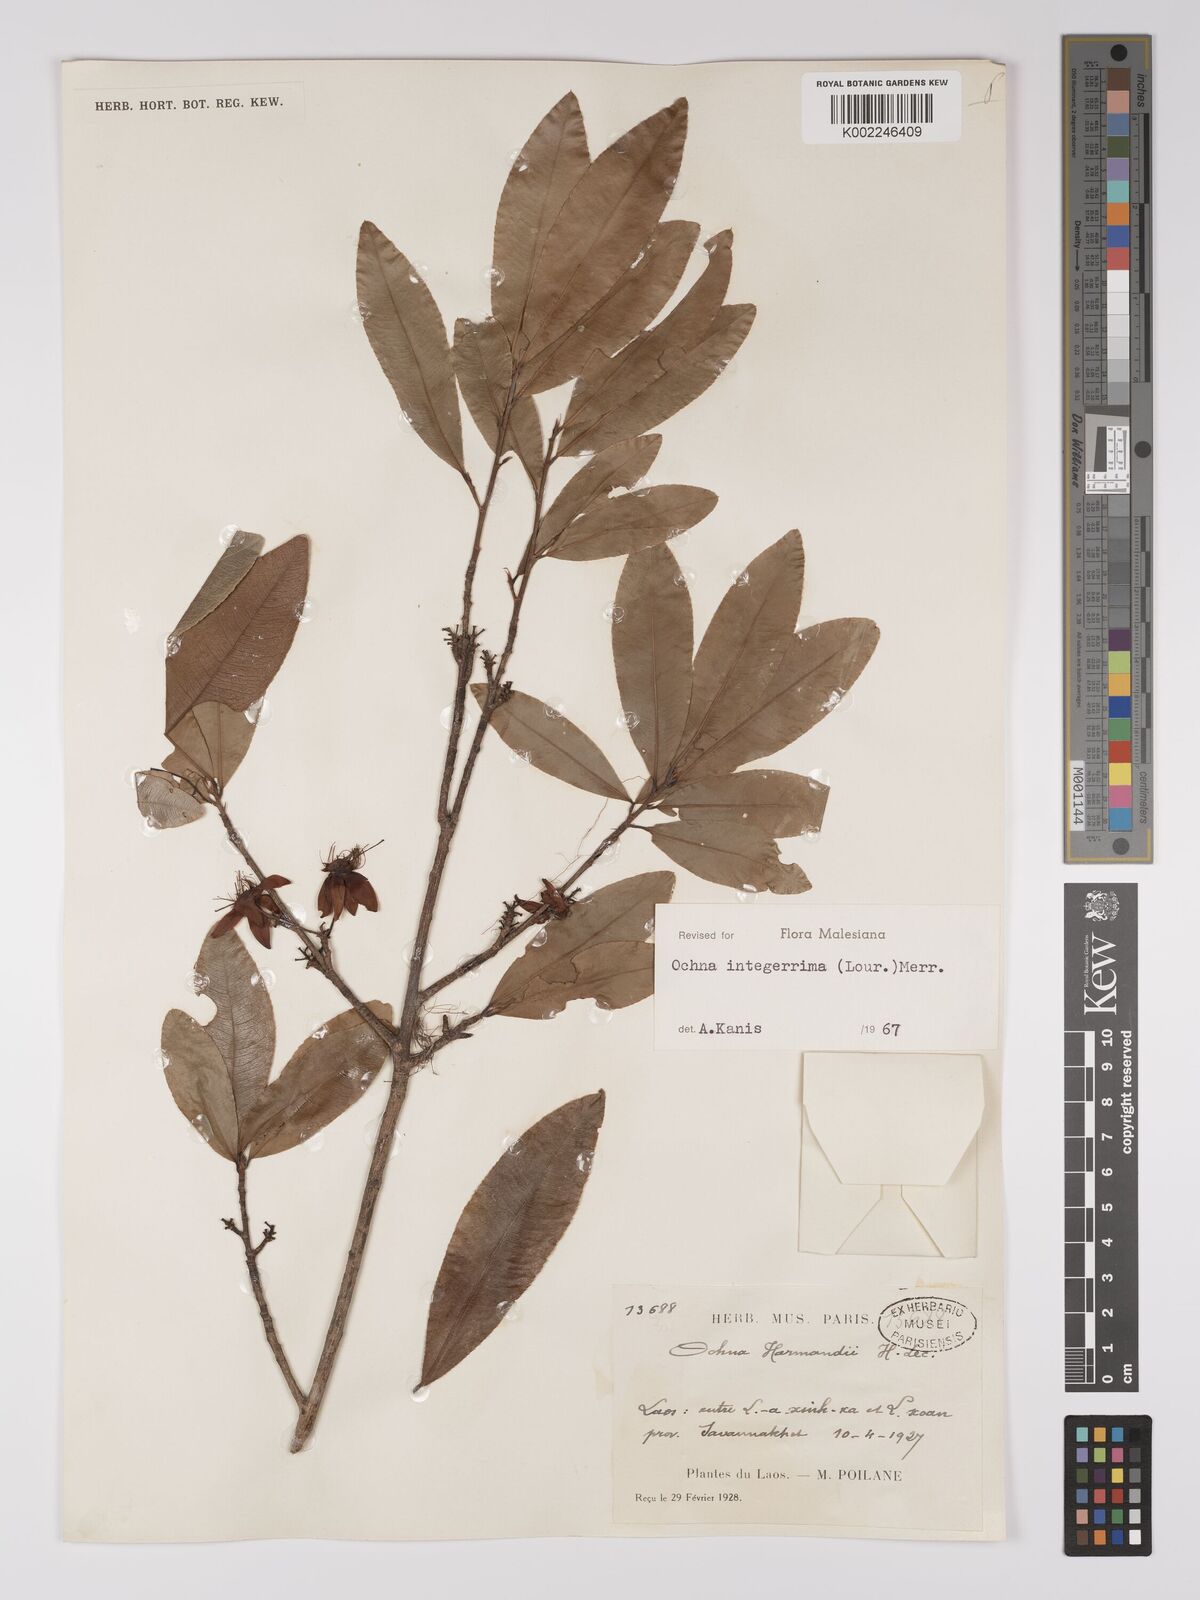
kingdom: Plantae
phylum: Tracheophyta
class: Magnoliopsida
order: Malpighiales
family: Ochnaceae
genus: Ochna
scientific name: Ochna integerrima
